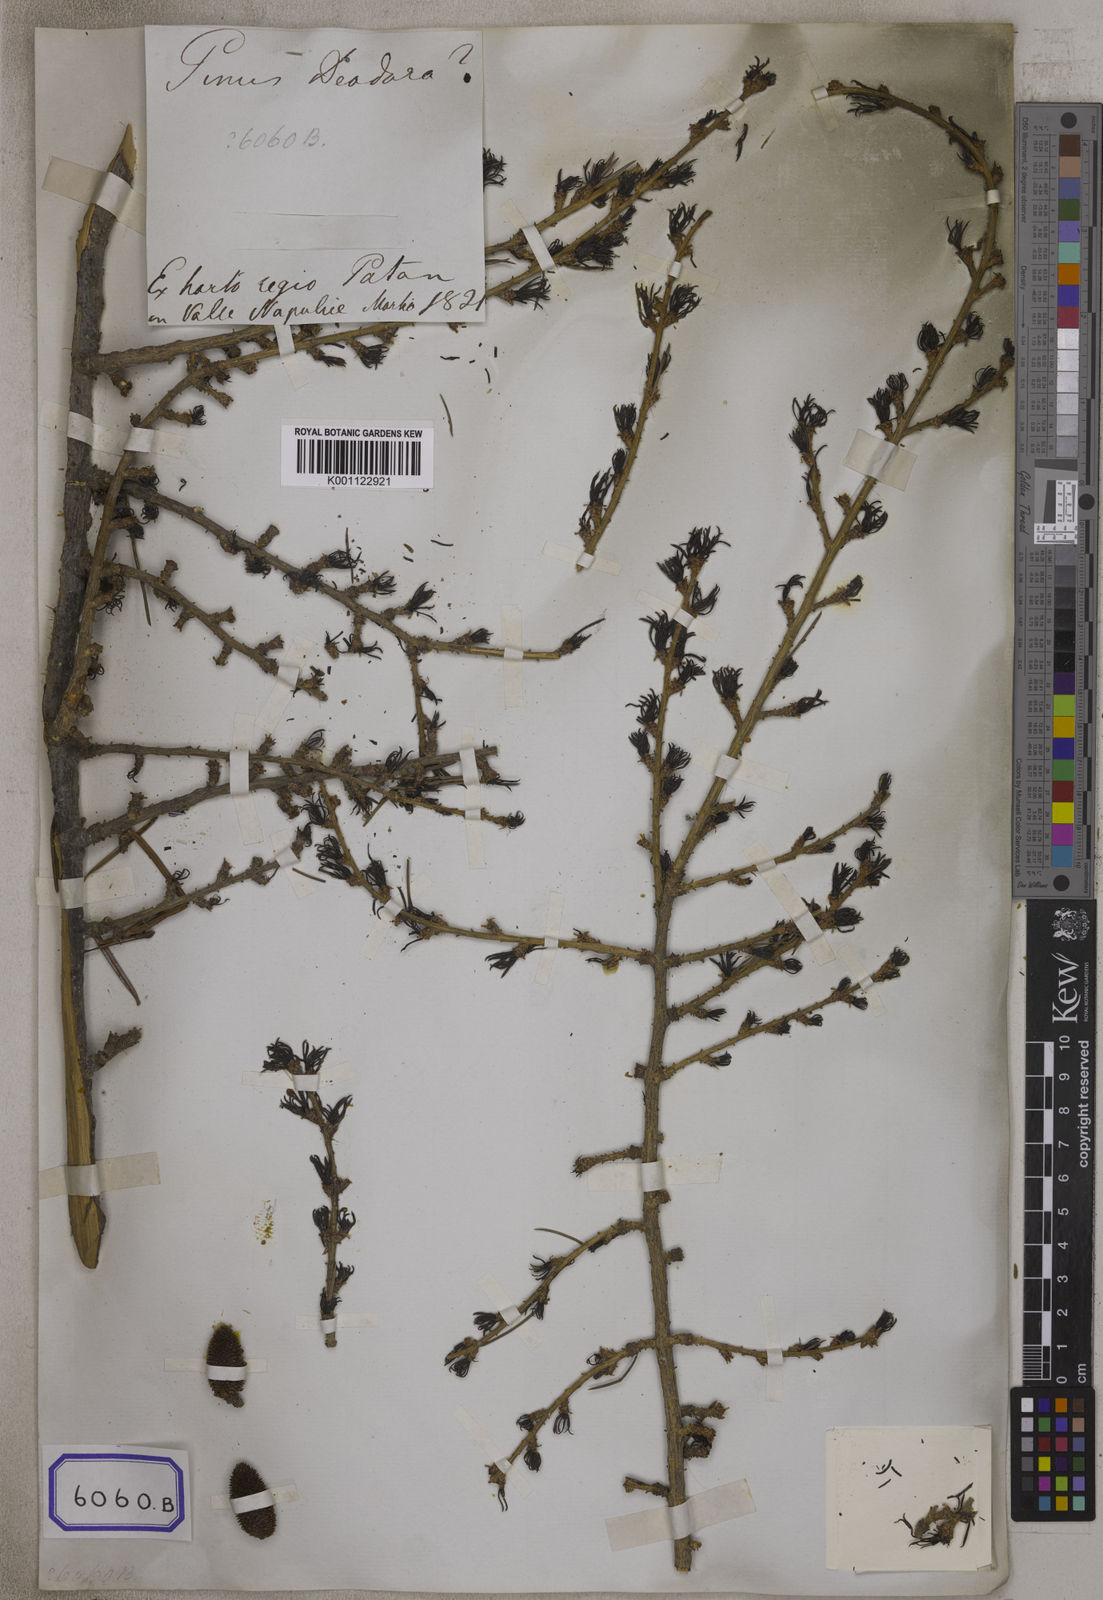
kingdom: Plantae
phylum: Tracheophyta
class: Pinopsida
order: Pinales
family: Pinaceae
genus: Pinus
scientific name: Pinus
